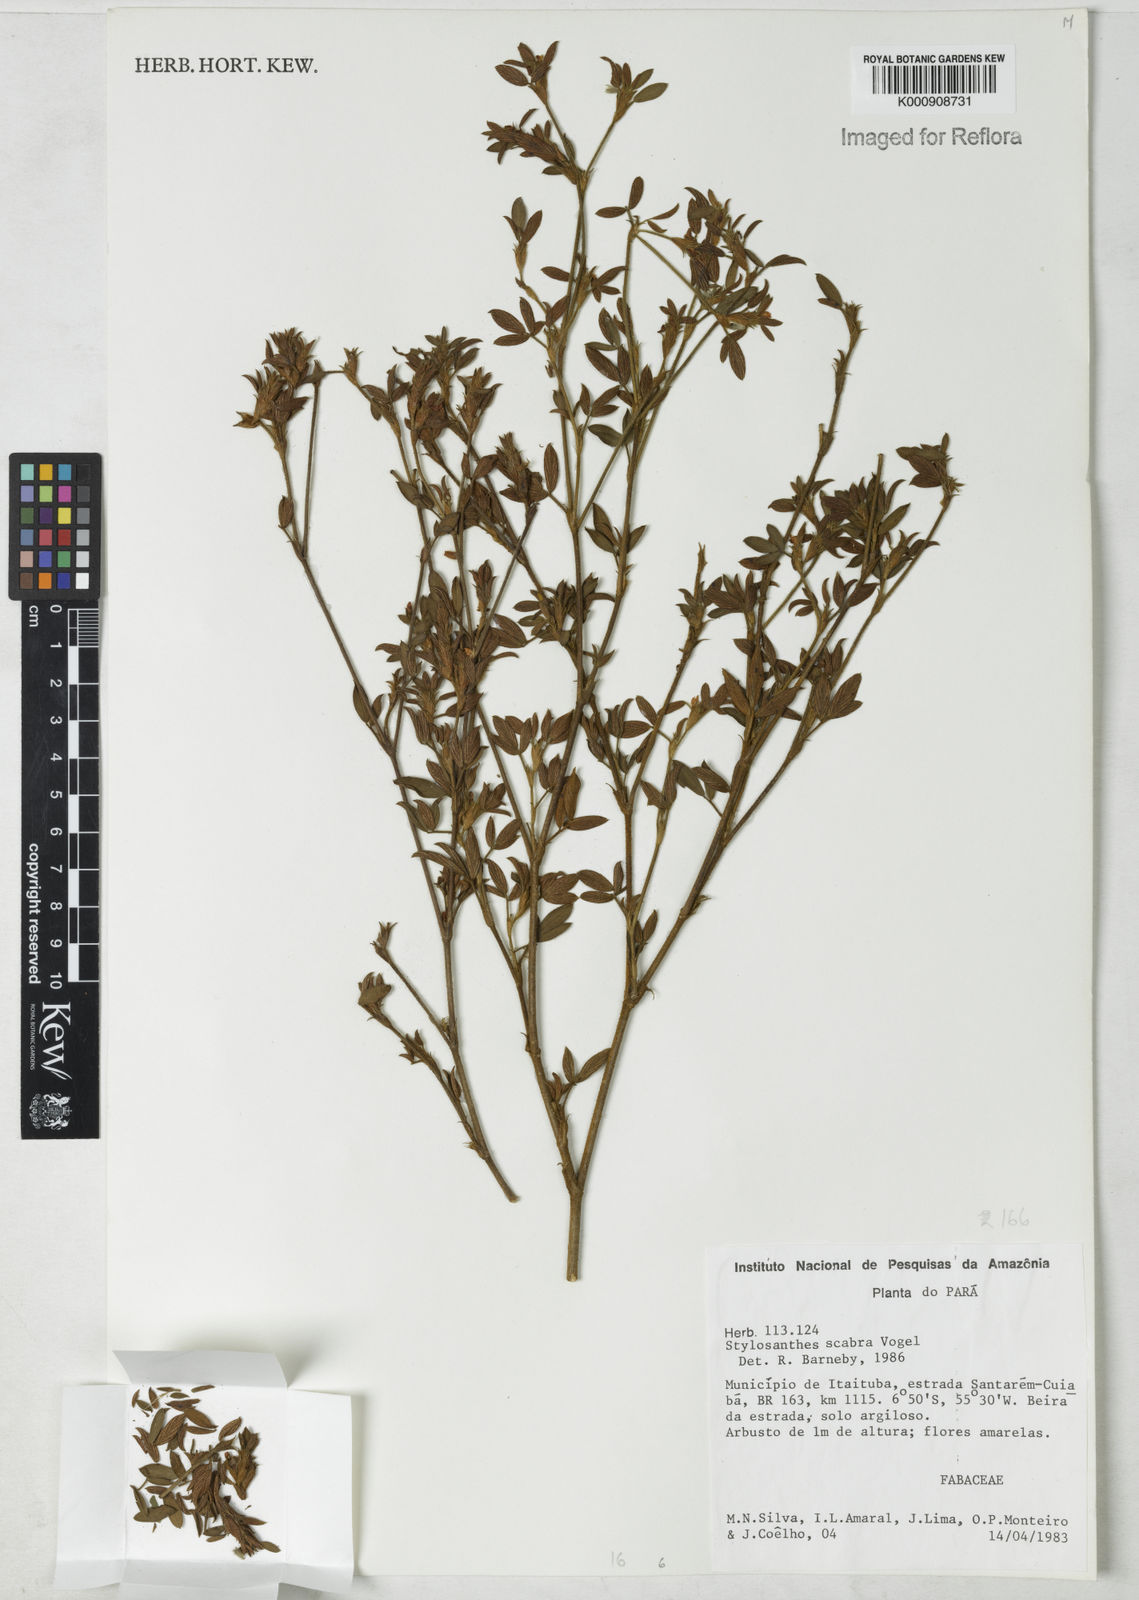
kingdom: Plantae
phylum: Tracheophyta
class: Magnoliopsida
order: Fabales
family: Fabaceae
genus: Stylosanthes
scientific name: Stylosanthes scabra
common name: Pencilflower
